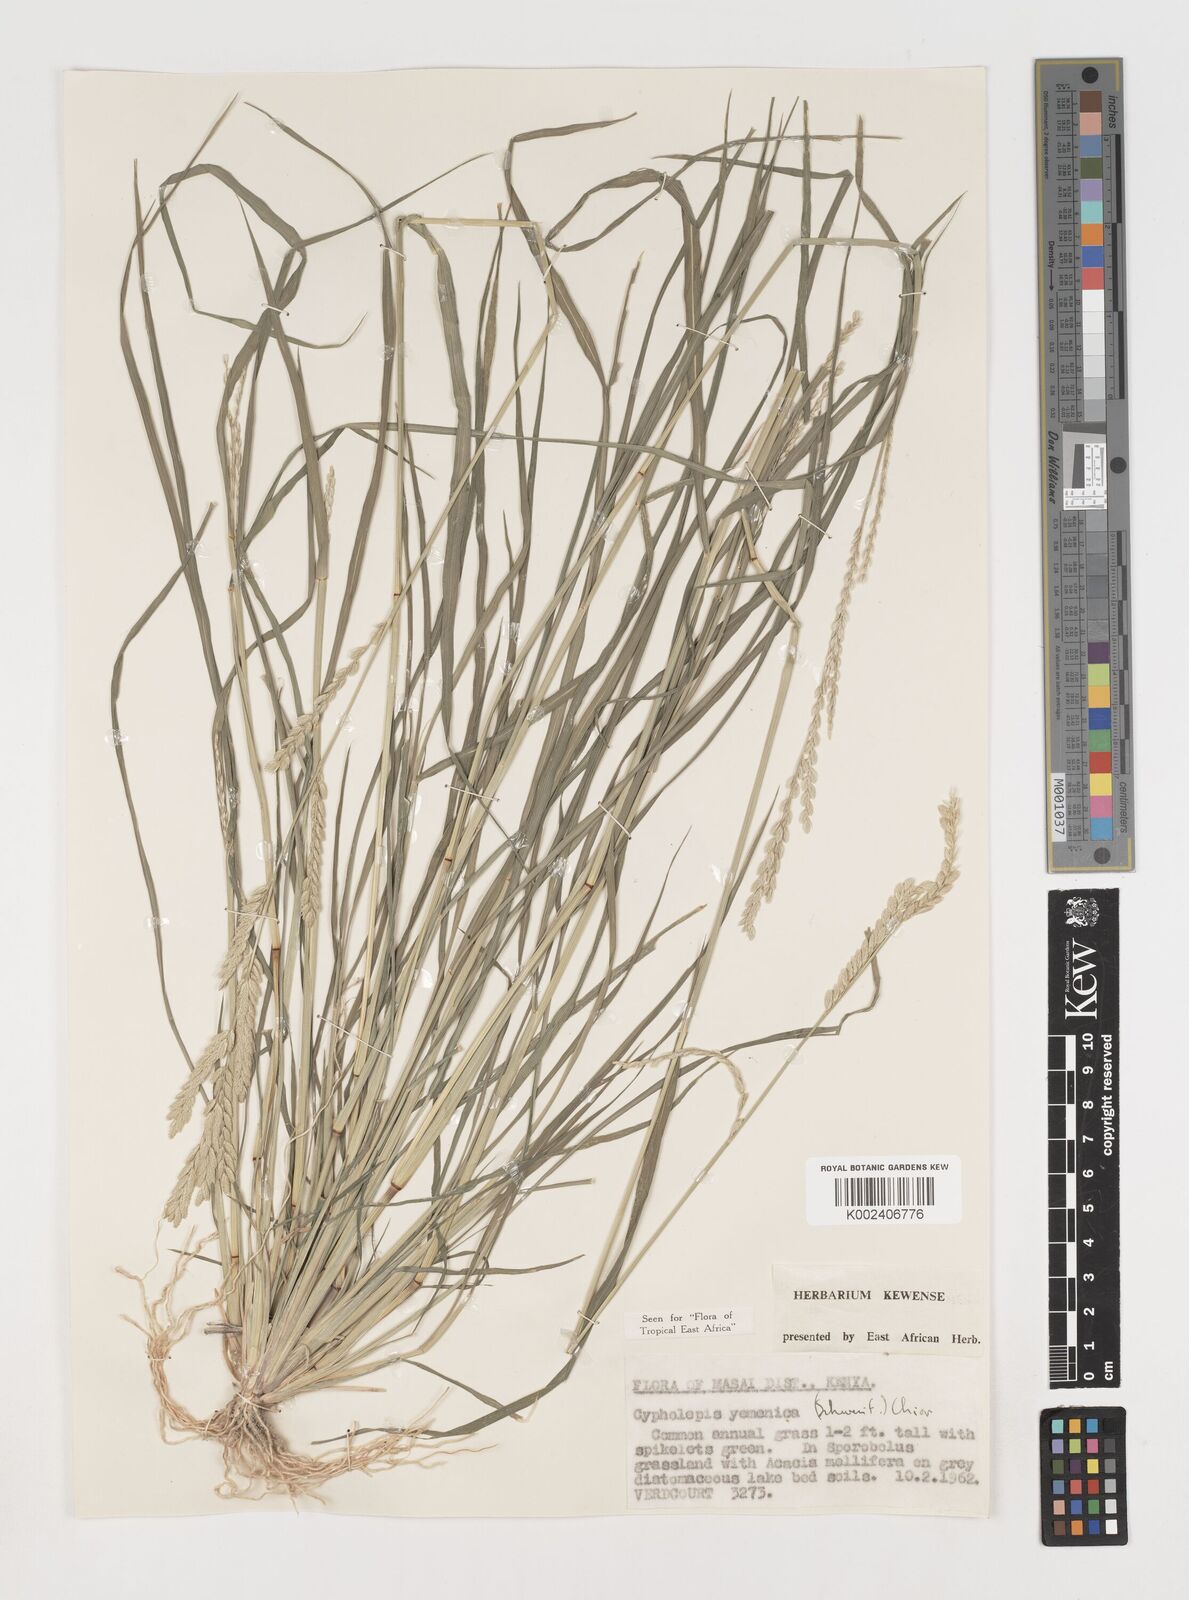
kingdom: Plantae
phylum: Tracheophyta
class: Liliopsida
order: Poales
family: Poaceae
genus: Disakisperma
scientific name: Disakisperma yemenicum
